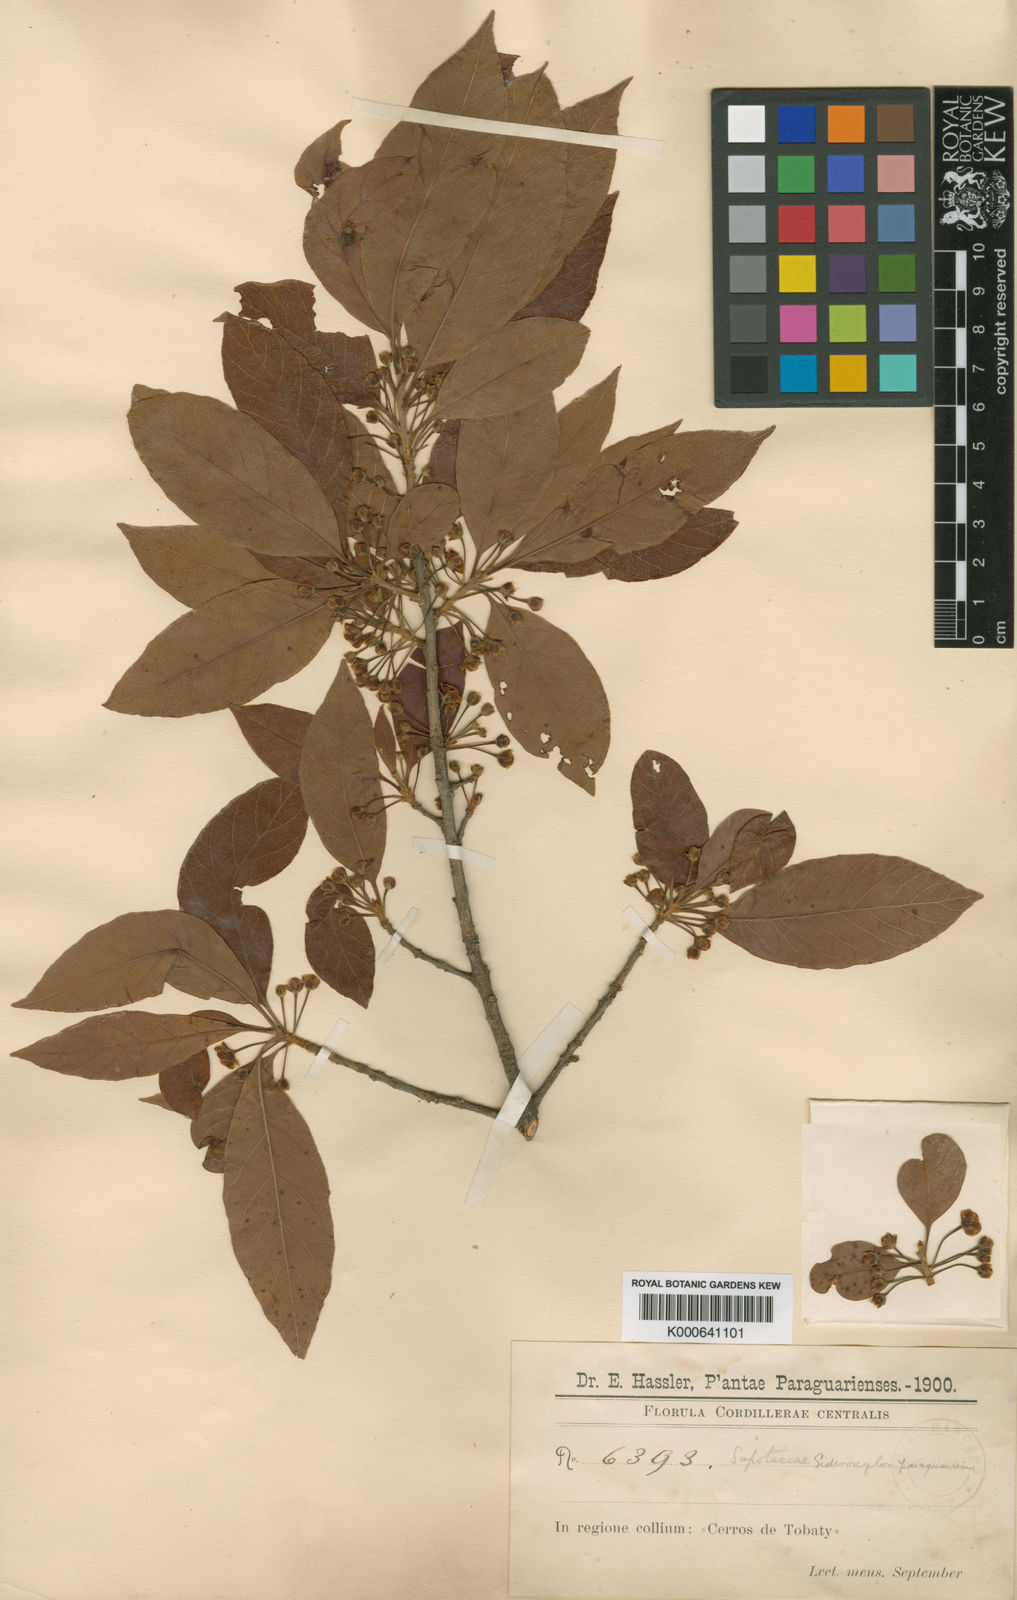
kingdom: Plantae
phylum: Tracheophyta
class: Magnoliopsida
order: Ericales
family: Sapotaceae
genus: Pouteria
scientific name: Pouteria gardneri
